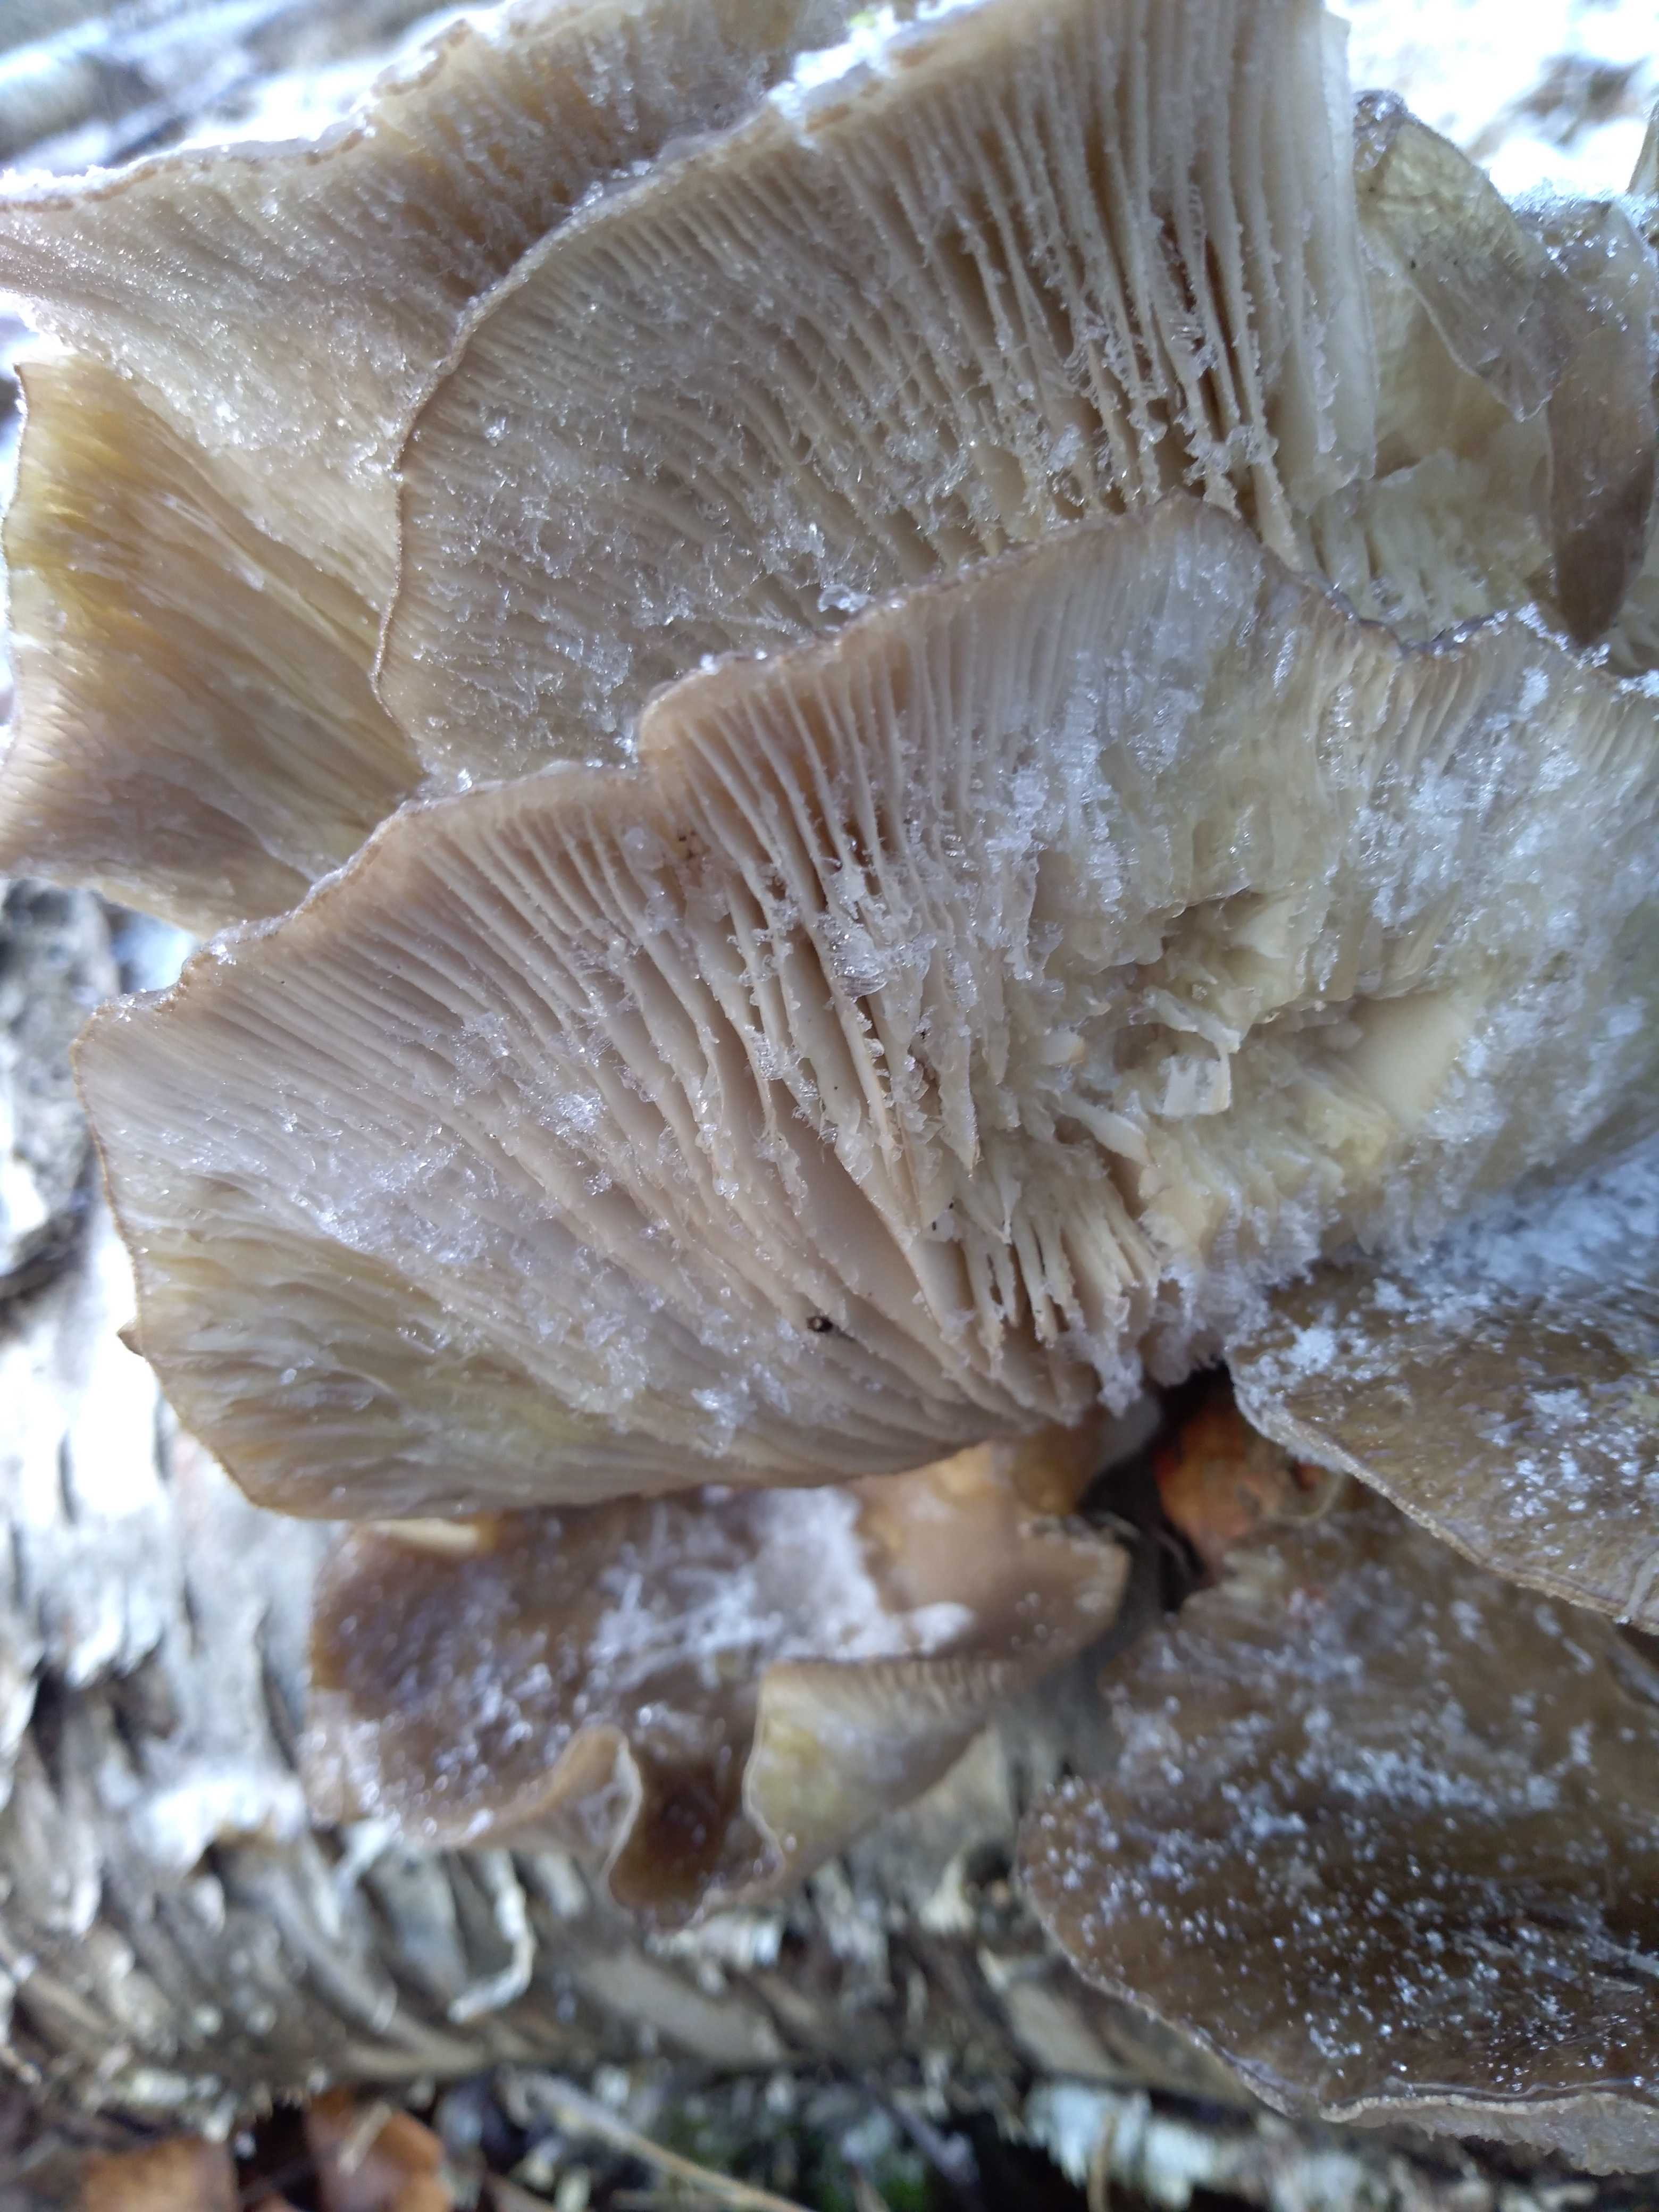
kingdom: Fungi
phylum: Basidiomycota
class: Agaricomycetes
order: Agaricales
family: Pleurotaceae
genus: Pleurotus
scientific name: Pleurotus ostreatus
